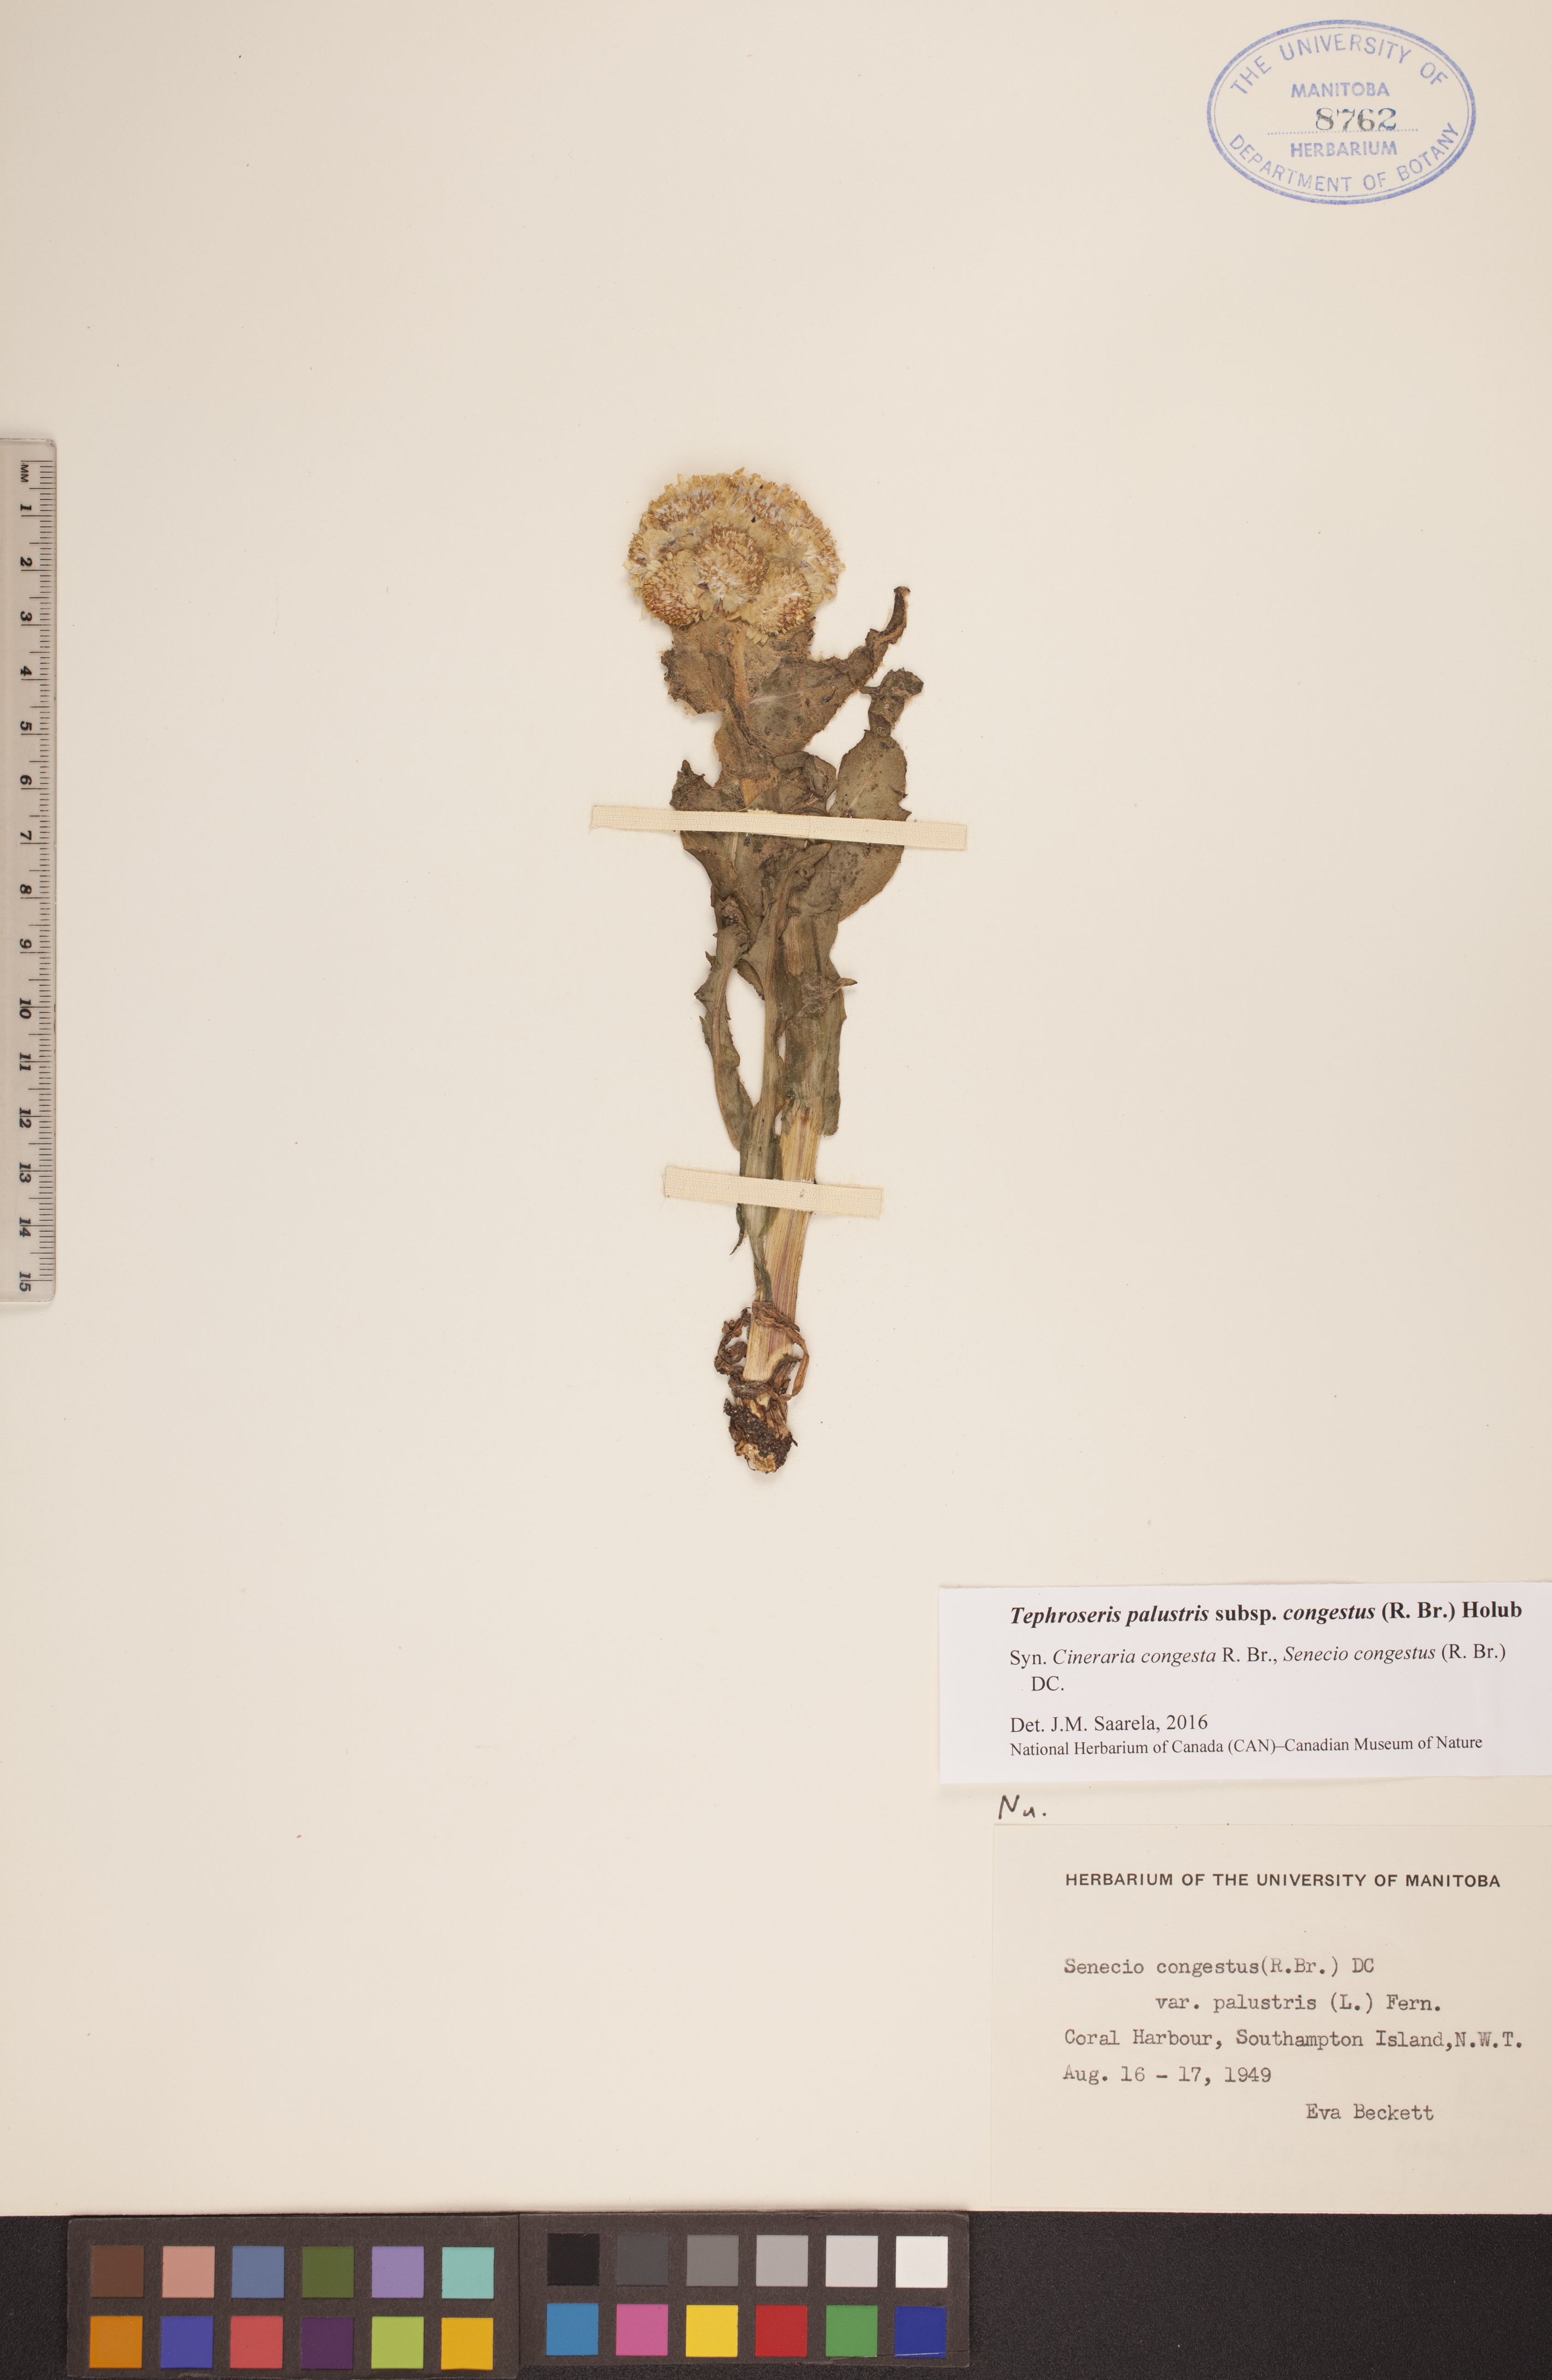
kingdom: Plantae
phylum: Tracheophyta
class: Magnoliopsida
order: Asterales
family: Asteraceae
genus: Tephroseris
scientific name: Tephroseris palustris
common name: Marsh fleawort
